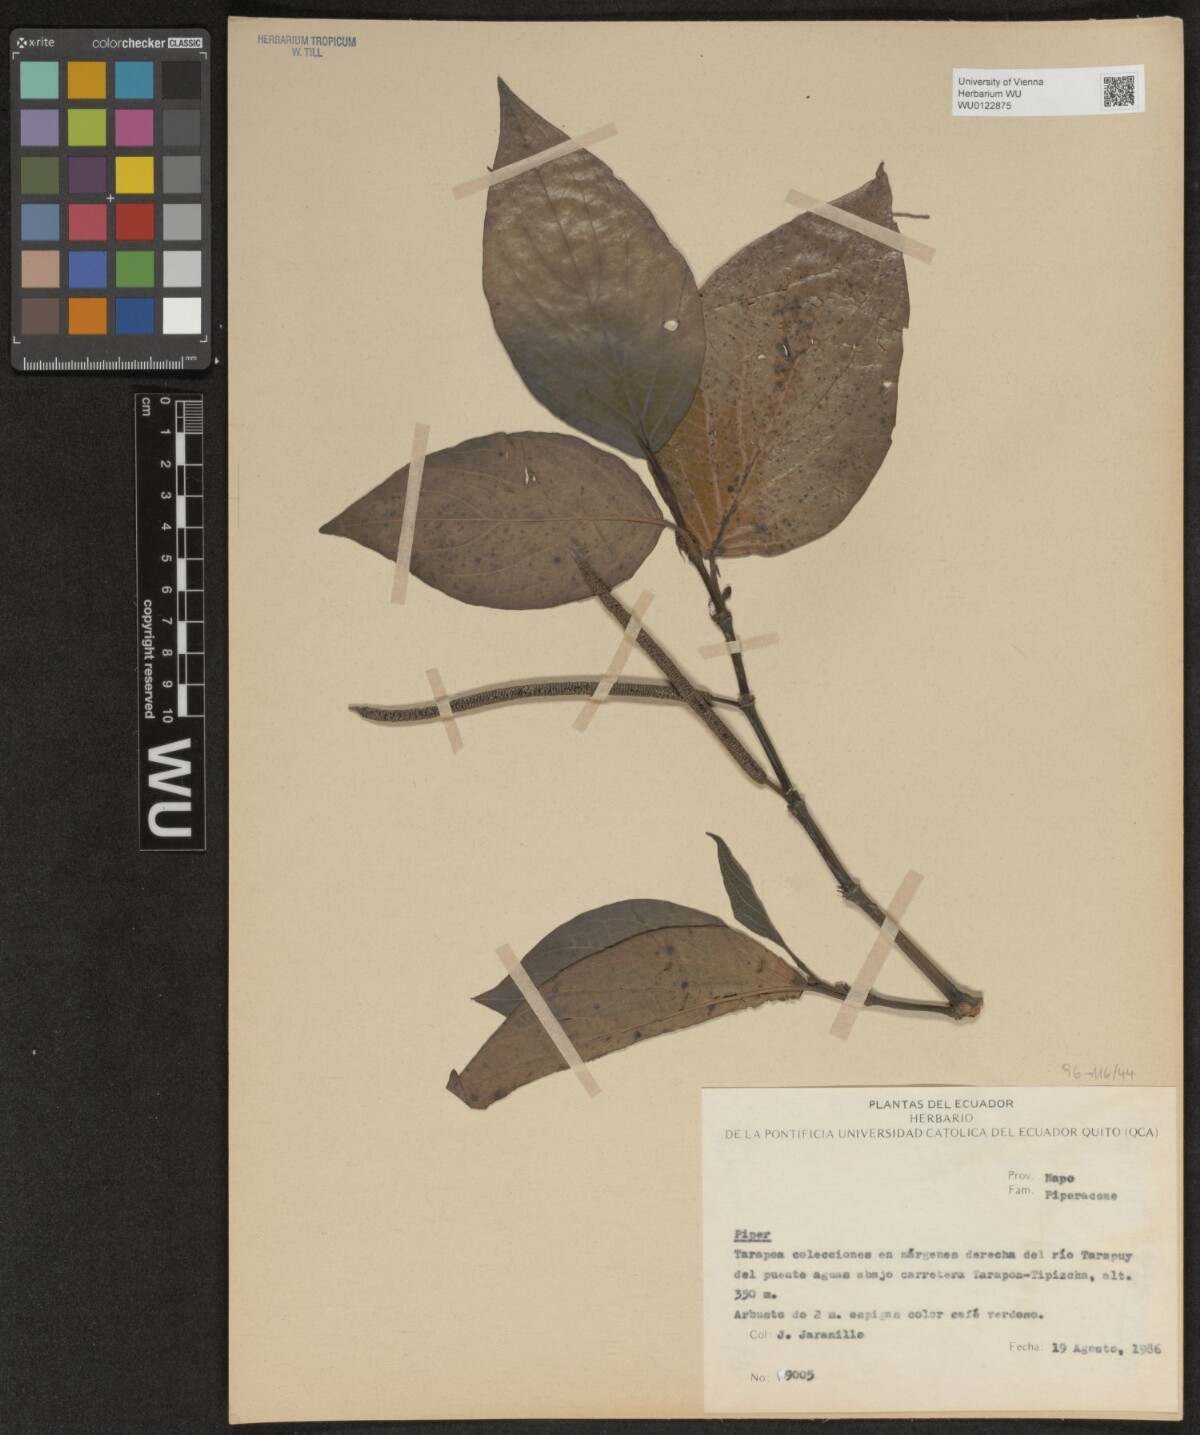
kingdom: Plantae
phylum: Tracheophyta
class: Magnoliopsida
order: Piperales
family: Piperaceae
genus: Piper
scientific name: Piper
